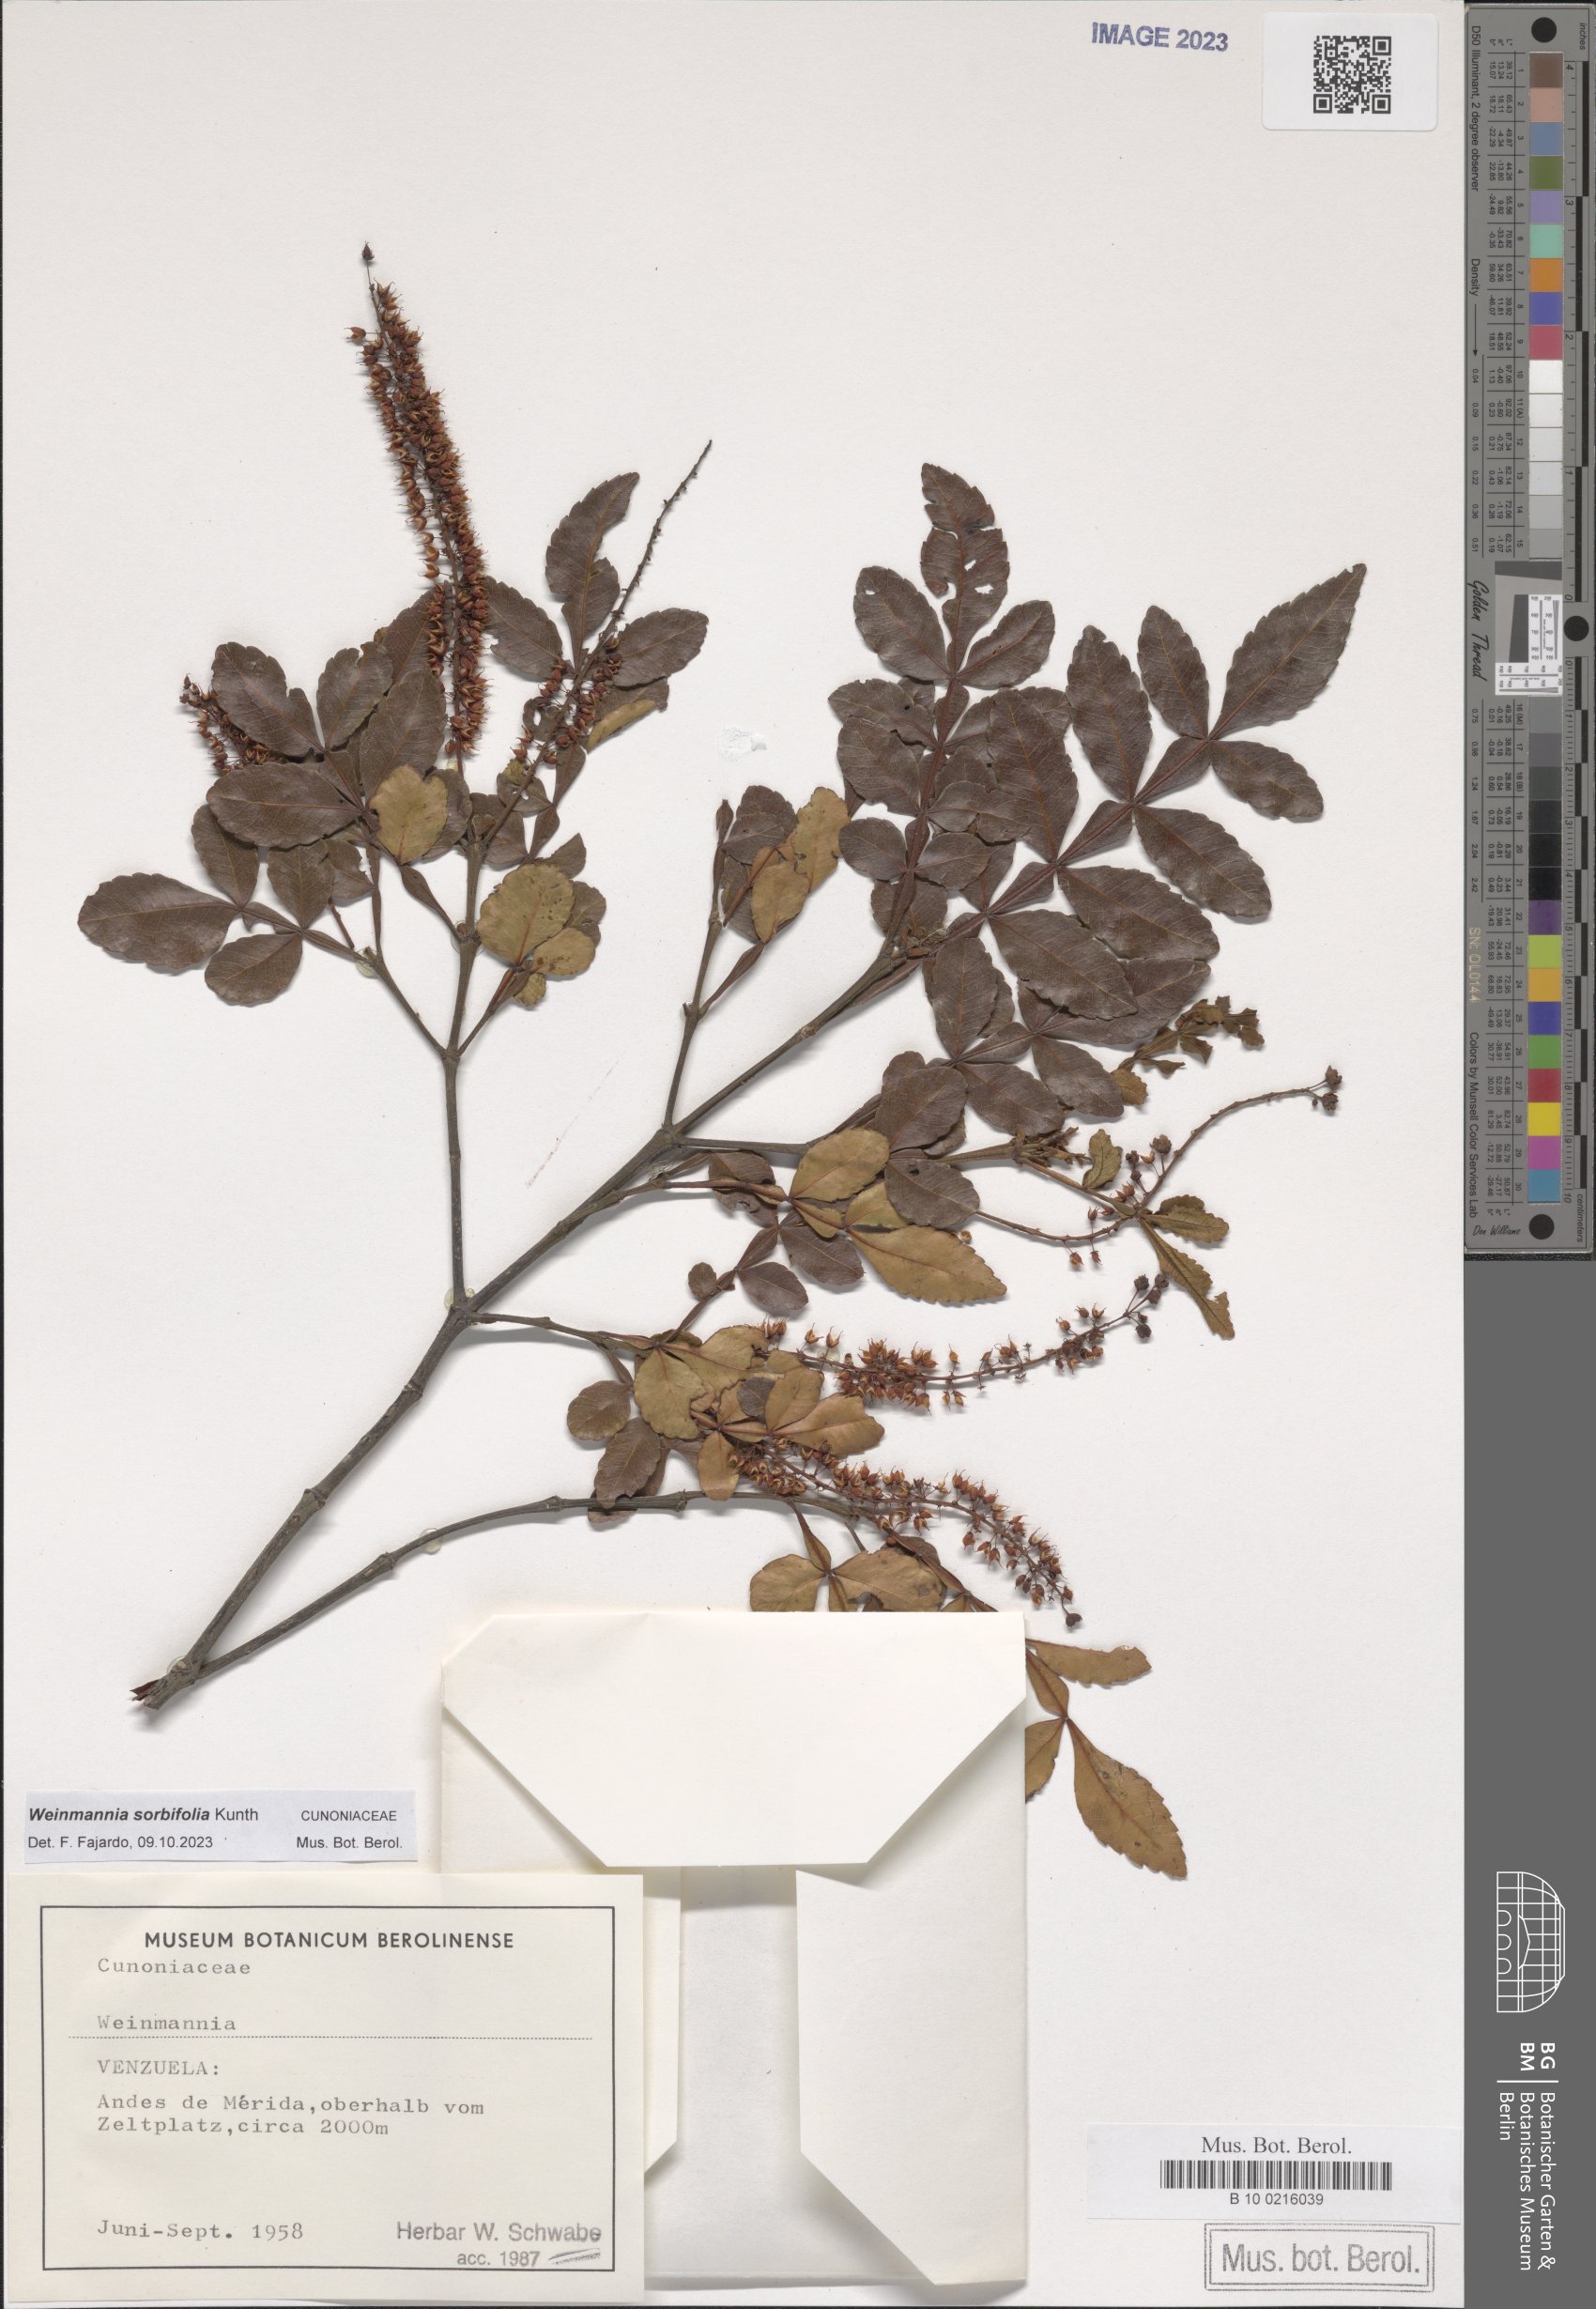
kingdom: Plantae
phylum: Tracheophyta
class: Magnoliopsida
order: Oxalidales
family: Cunoniaceae
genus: Weinmannia
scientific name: Weinmannia sorbifolia
